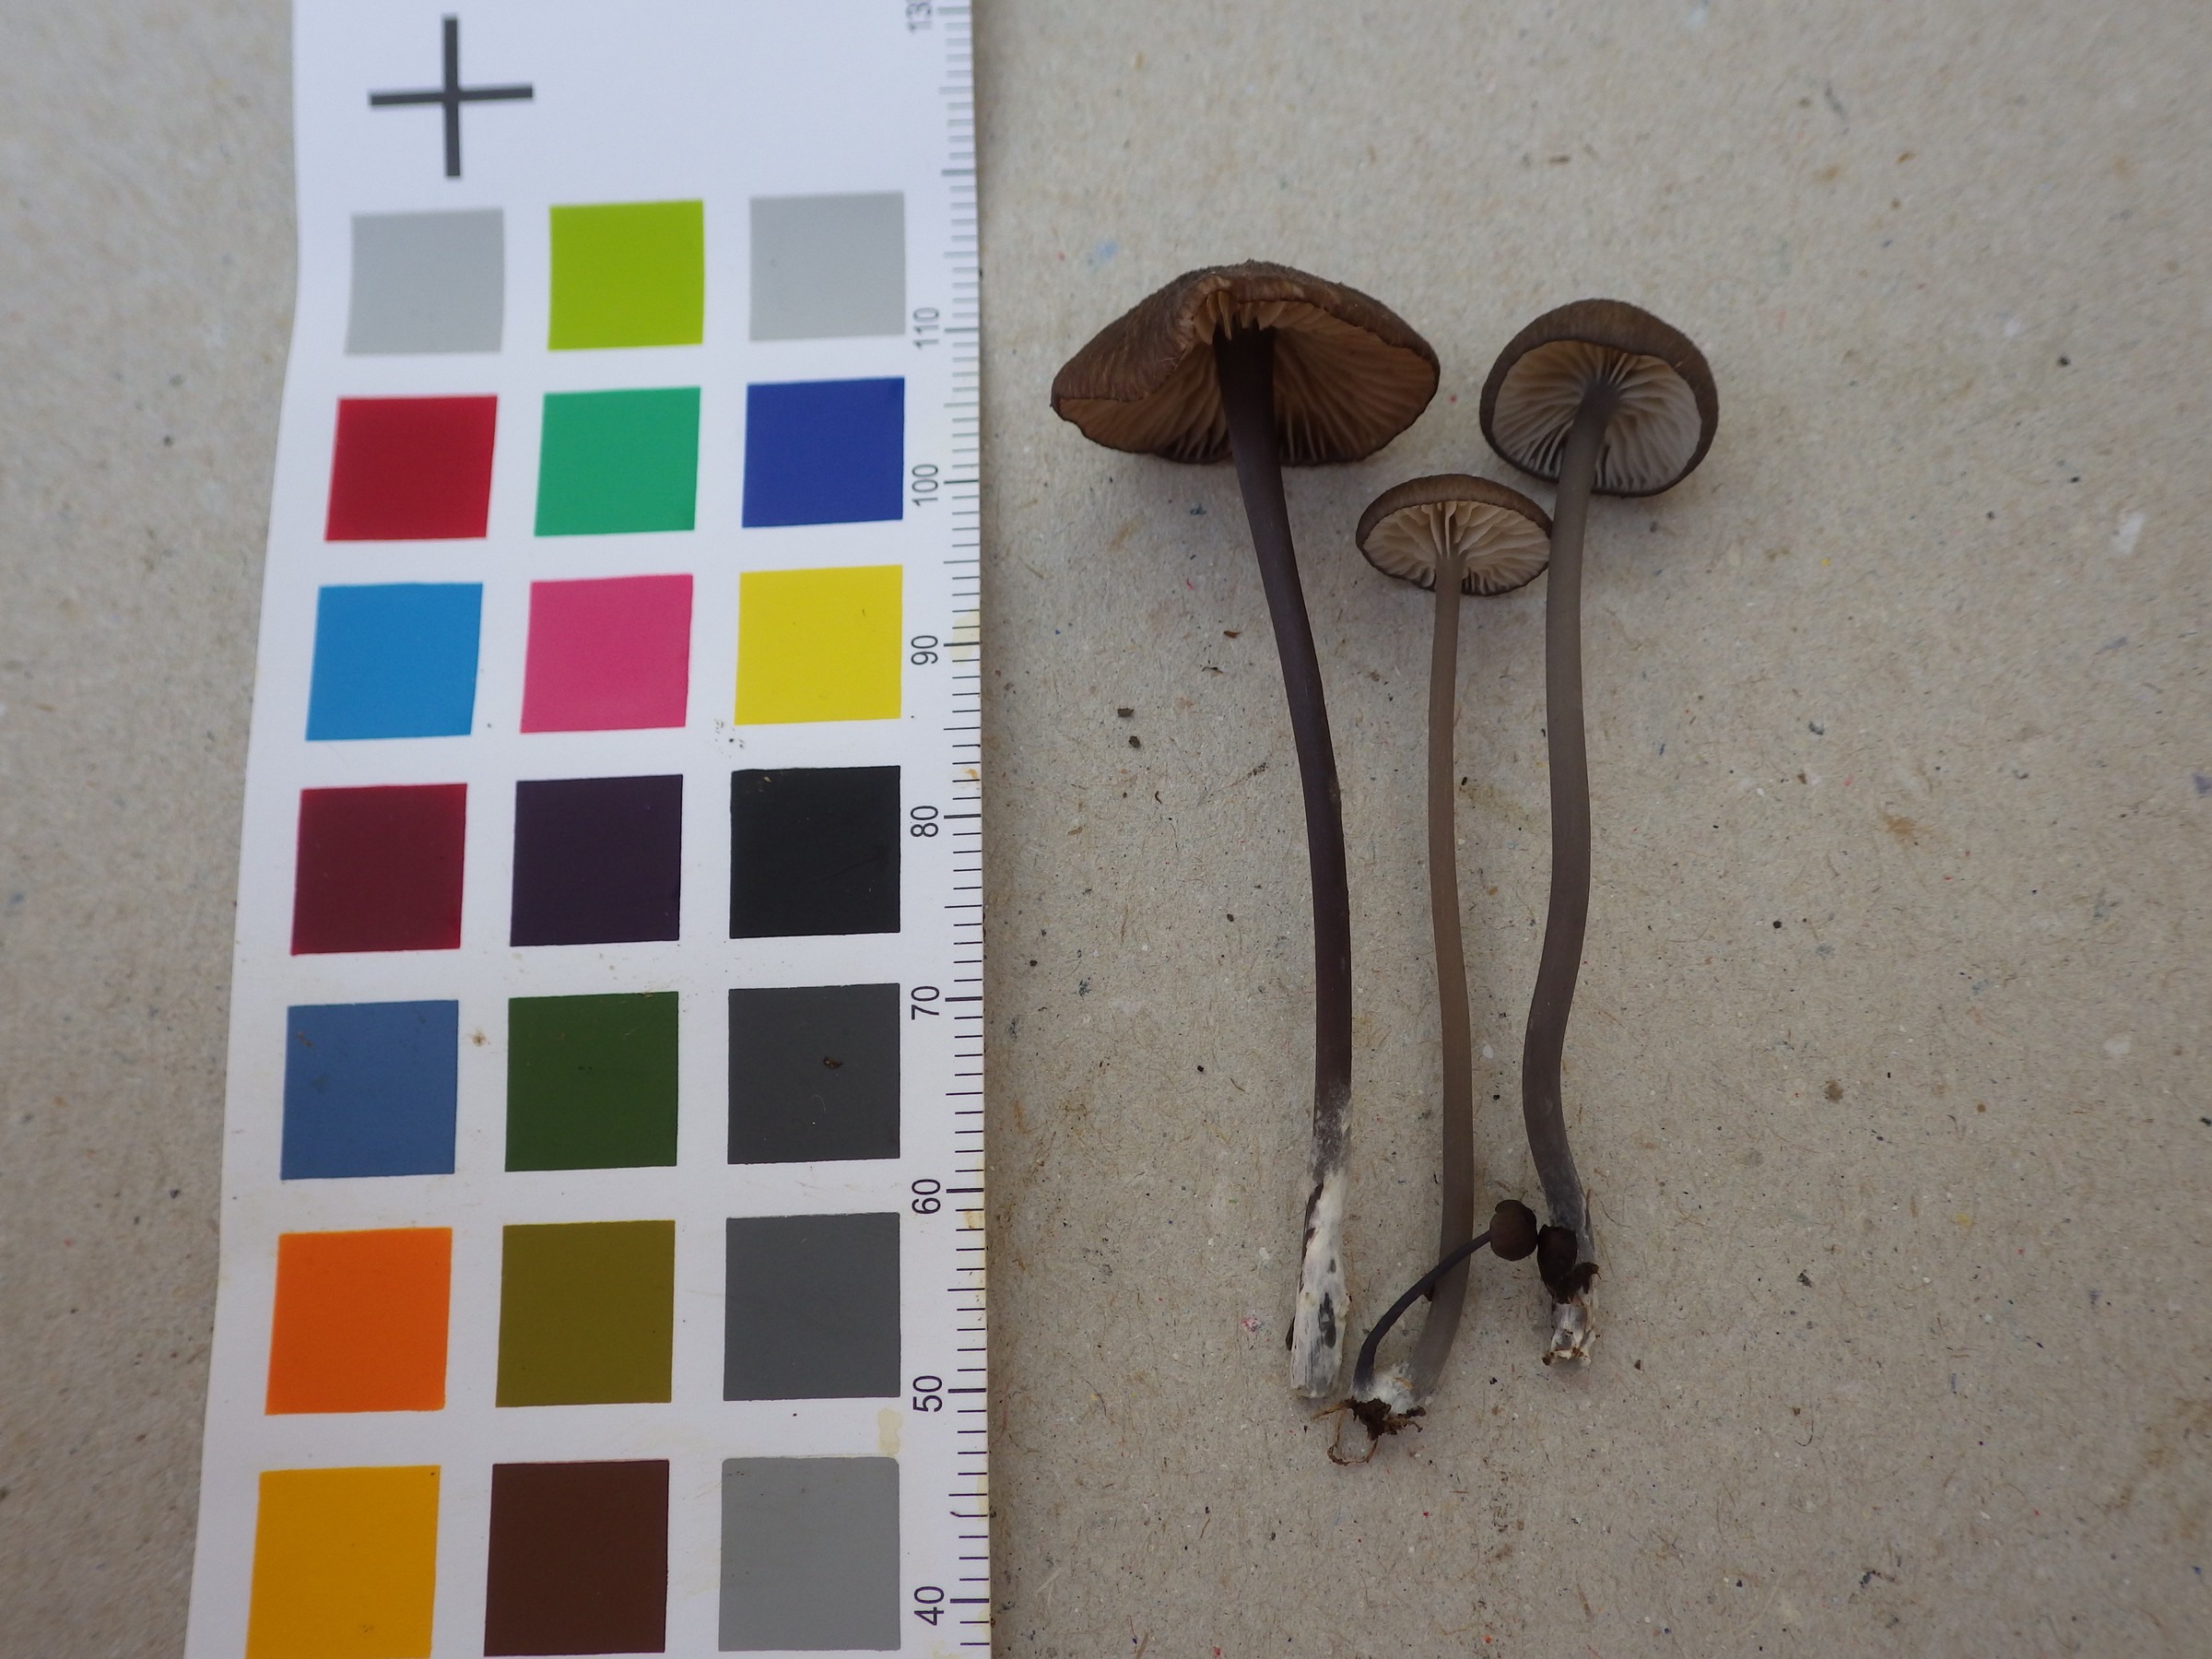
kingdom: Fungi
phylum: Basidiomycota
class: Agaricomycetes
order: Agaricales
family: Entolomataceae
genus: Entoloma
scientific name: Entoloma asprellum
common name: Roughened pinkgill
